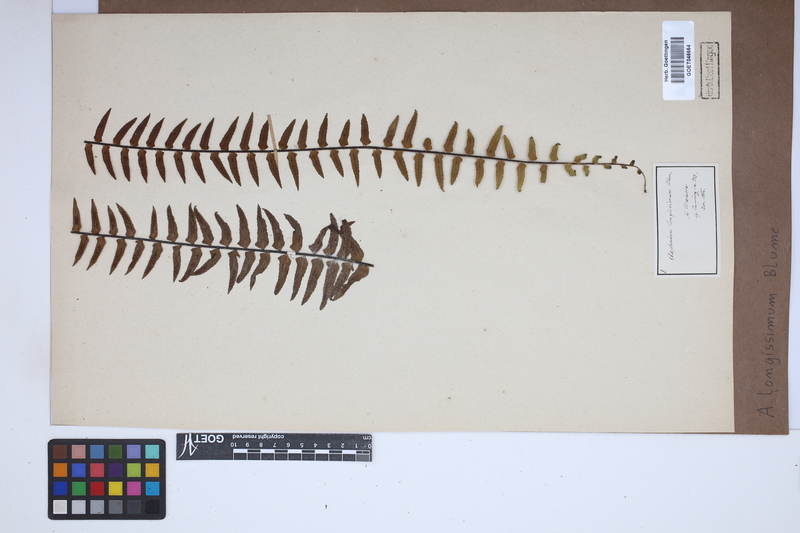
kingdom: Plantae
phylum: Tracheophyta
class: Polypodiopsida
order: Polypodiales
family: Aspleniaceae
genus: Asplenium
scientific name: Asplenium longissimum
